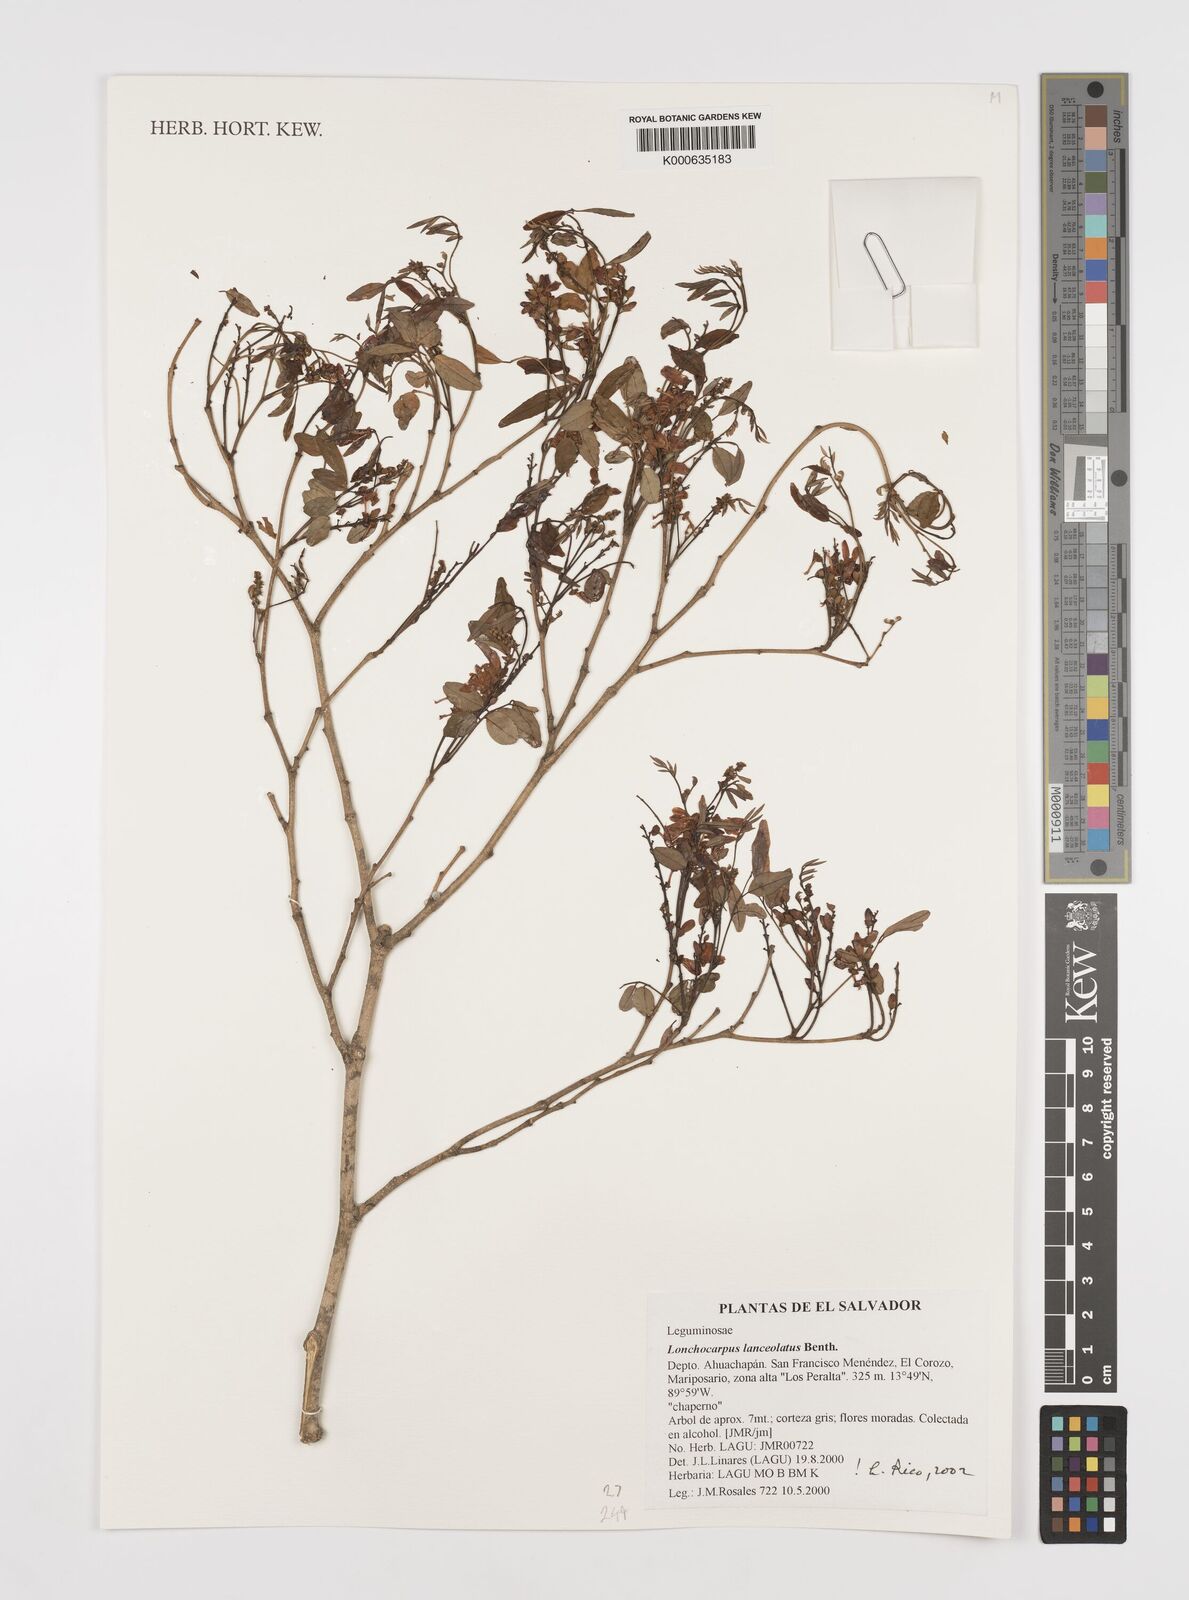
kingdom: Plantae
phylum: Tracheophyta
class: Magnoliopsida
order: Fabales
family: Fabaceae
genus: Lonchocarpus
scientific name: Lonchocarpus lanceolatus
